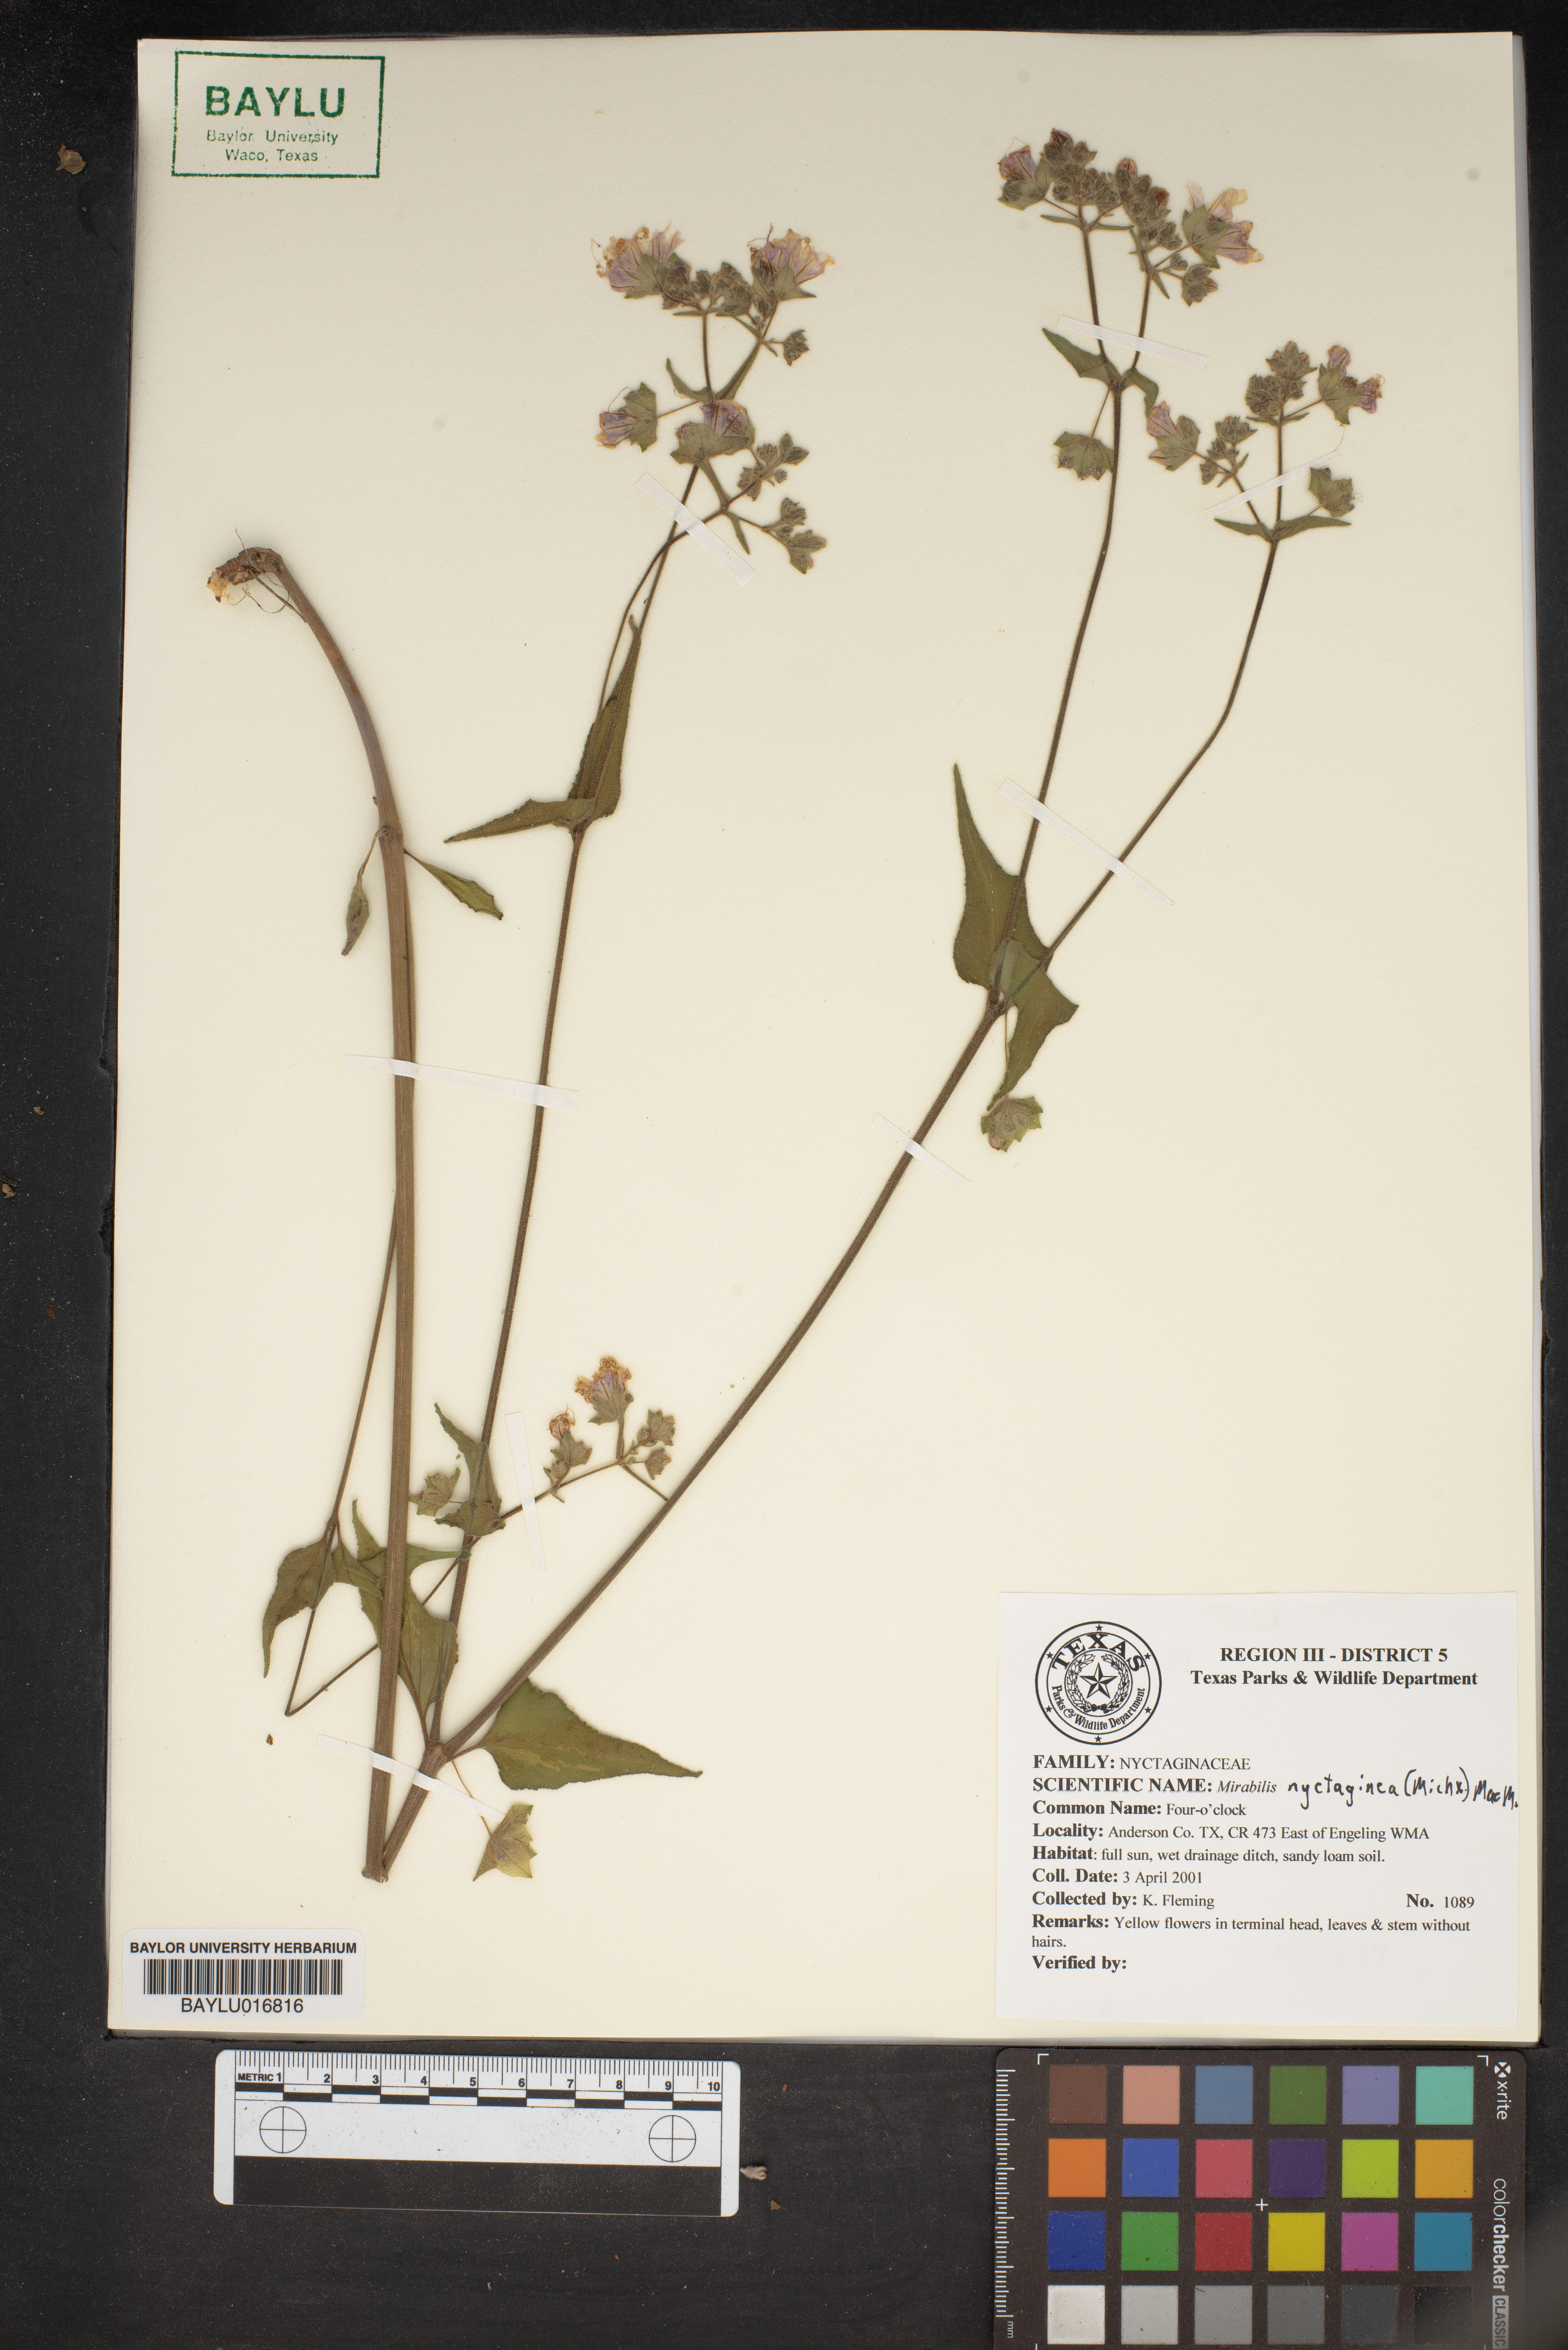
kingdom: Plantae
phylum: Tracheophyta
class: Magnoliopsida
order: Caryophyllales
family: Nyctaginaceae
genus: Mirabilis
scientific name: Mirabilis nyctaginea
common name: Umbrella wort
